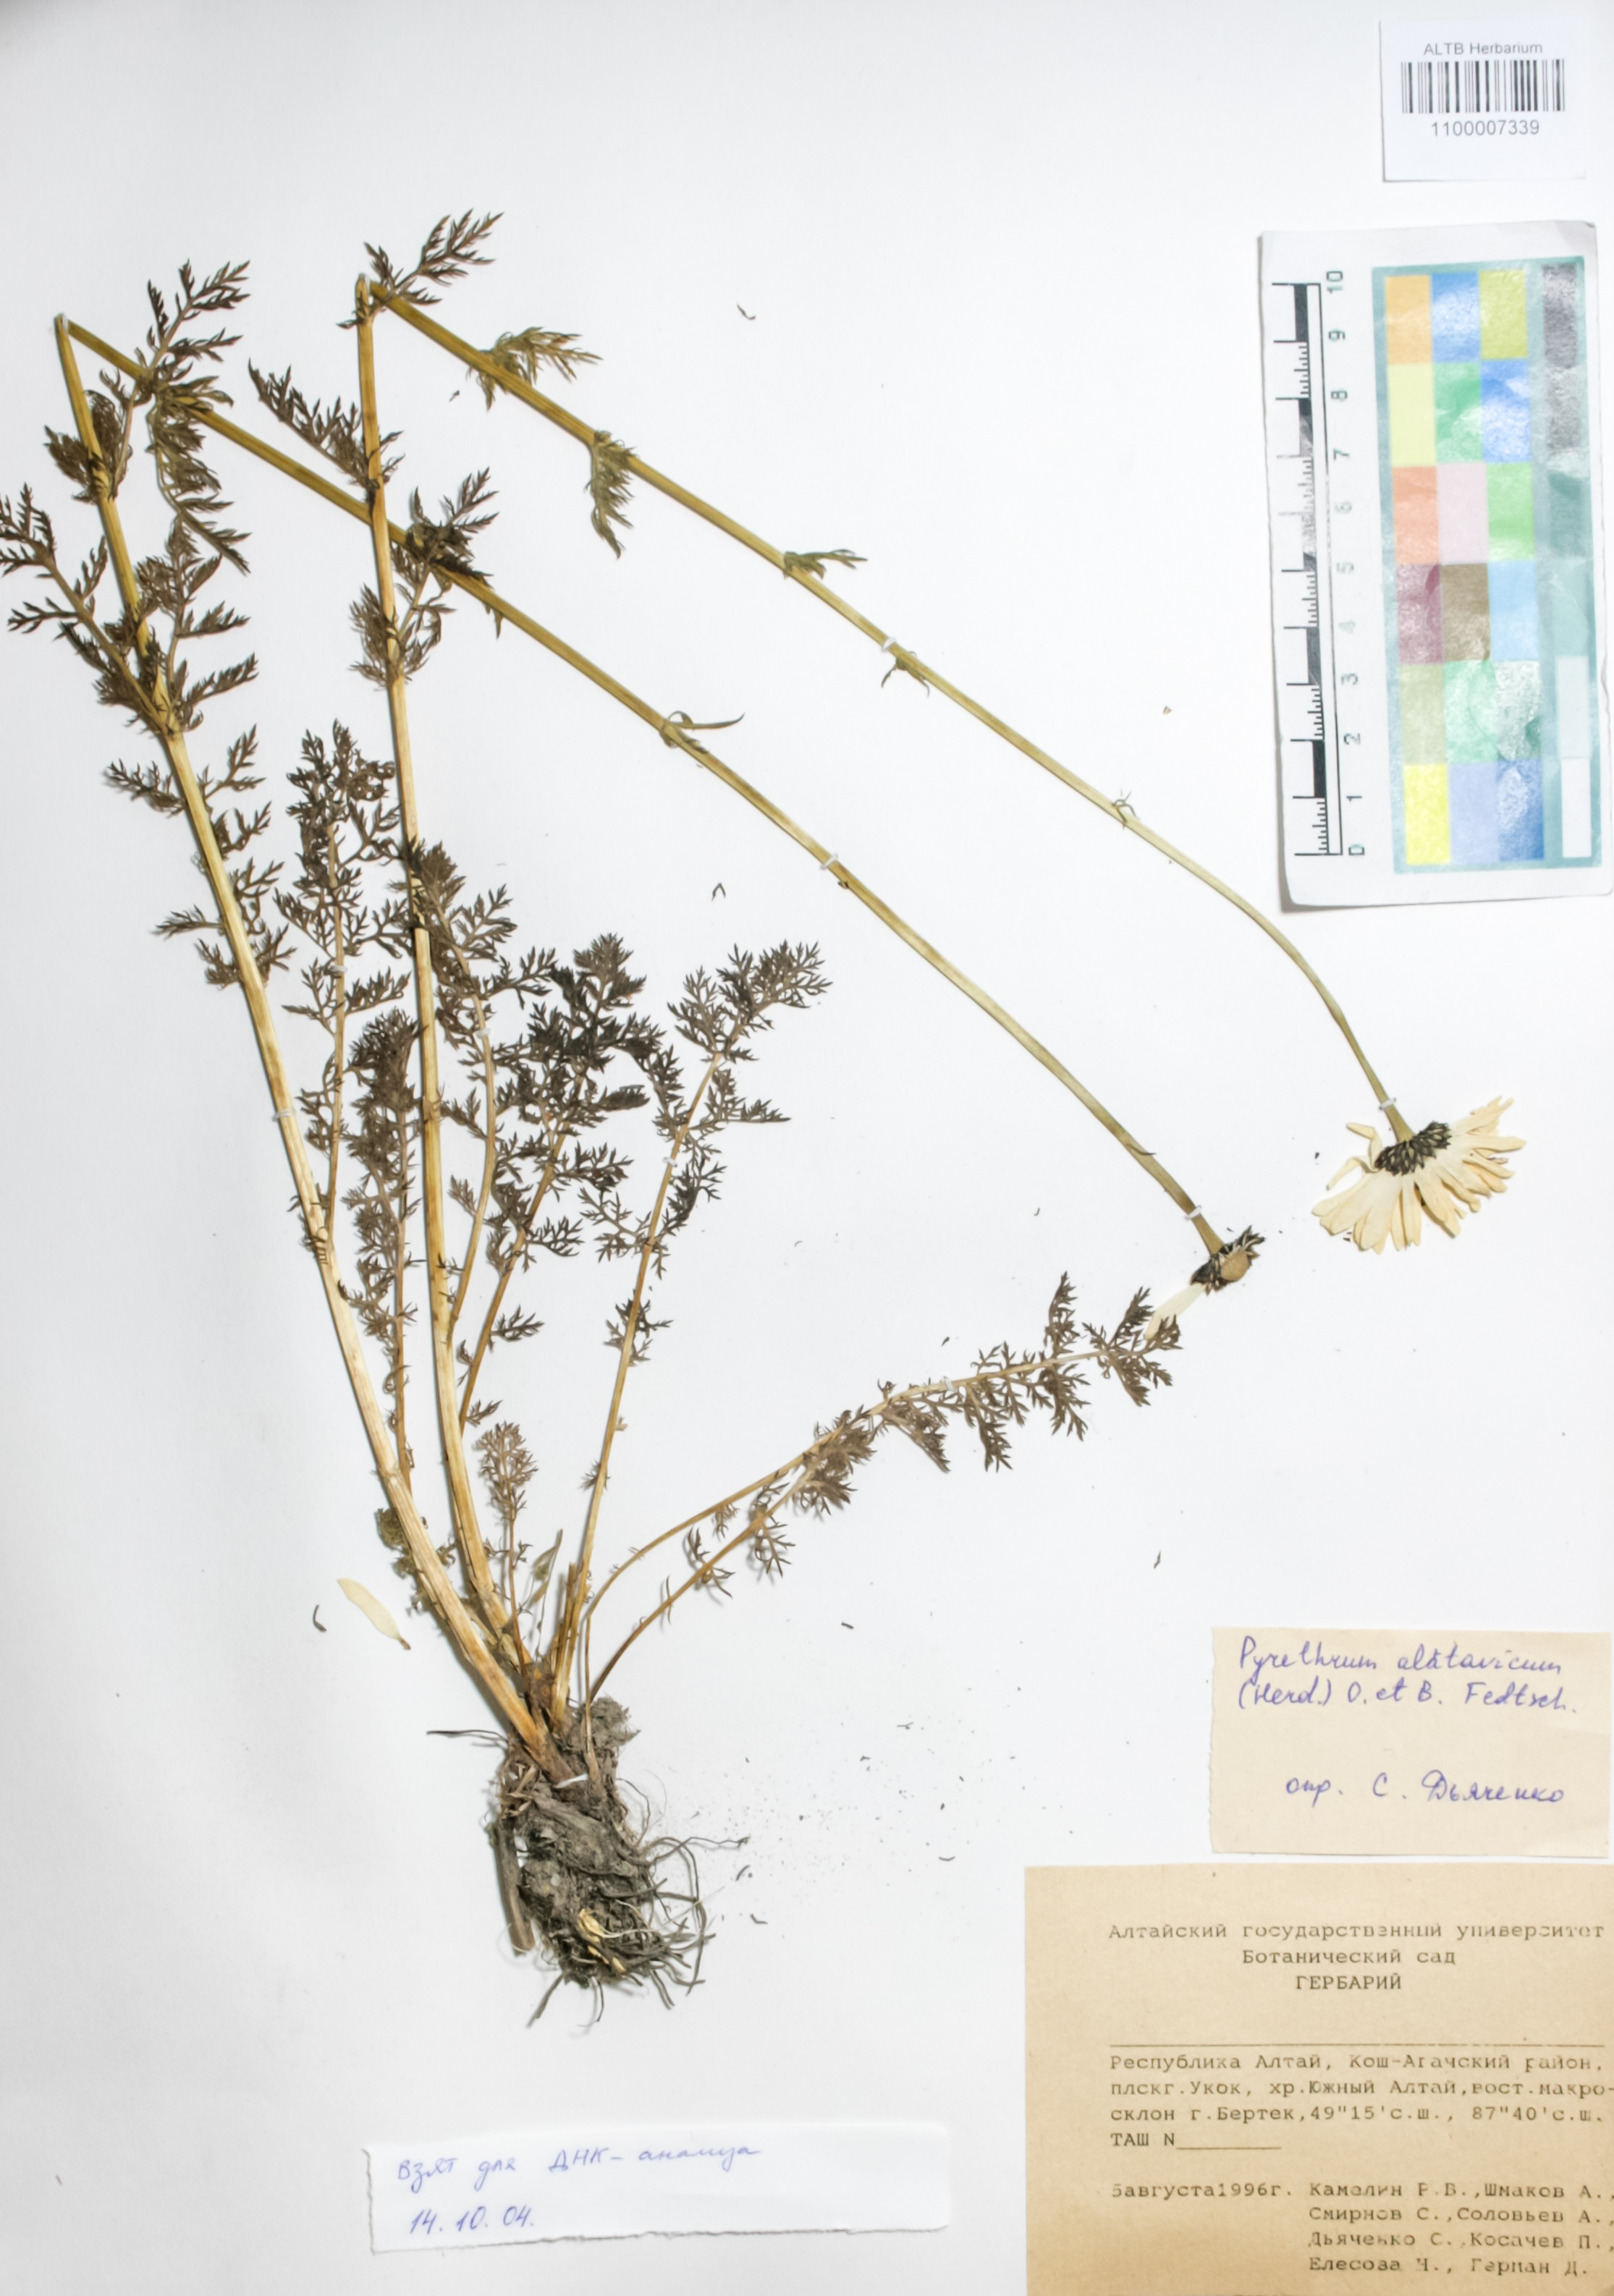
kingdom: Plantae
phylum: Tracheophyta
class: Magnoliopsida
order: Asterales
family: Asteraceae
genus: Tanacetum
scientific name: Tanacetum alatavicum
